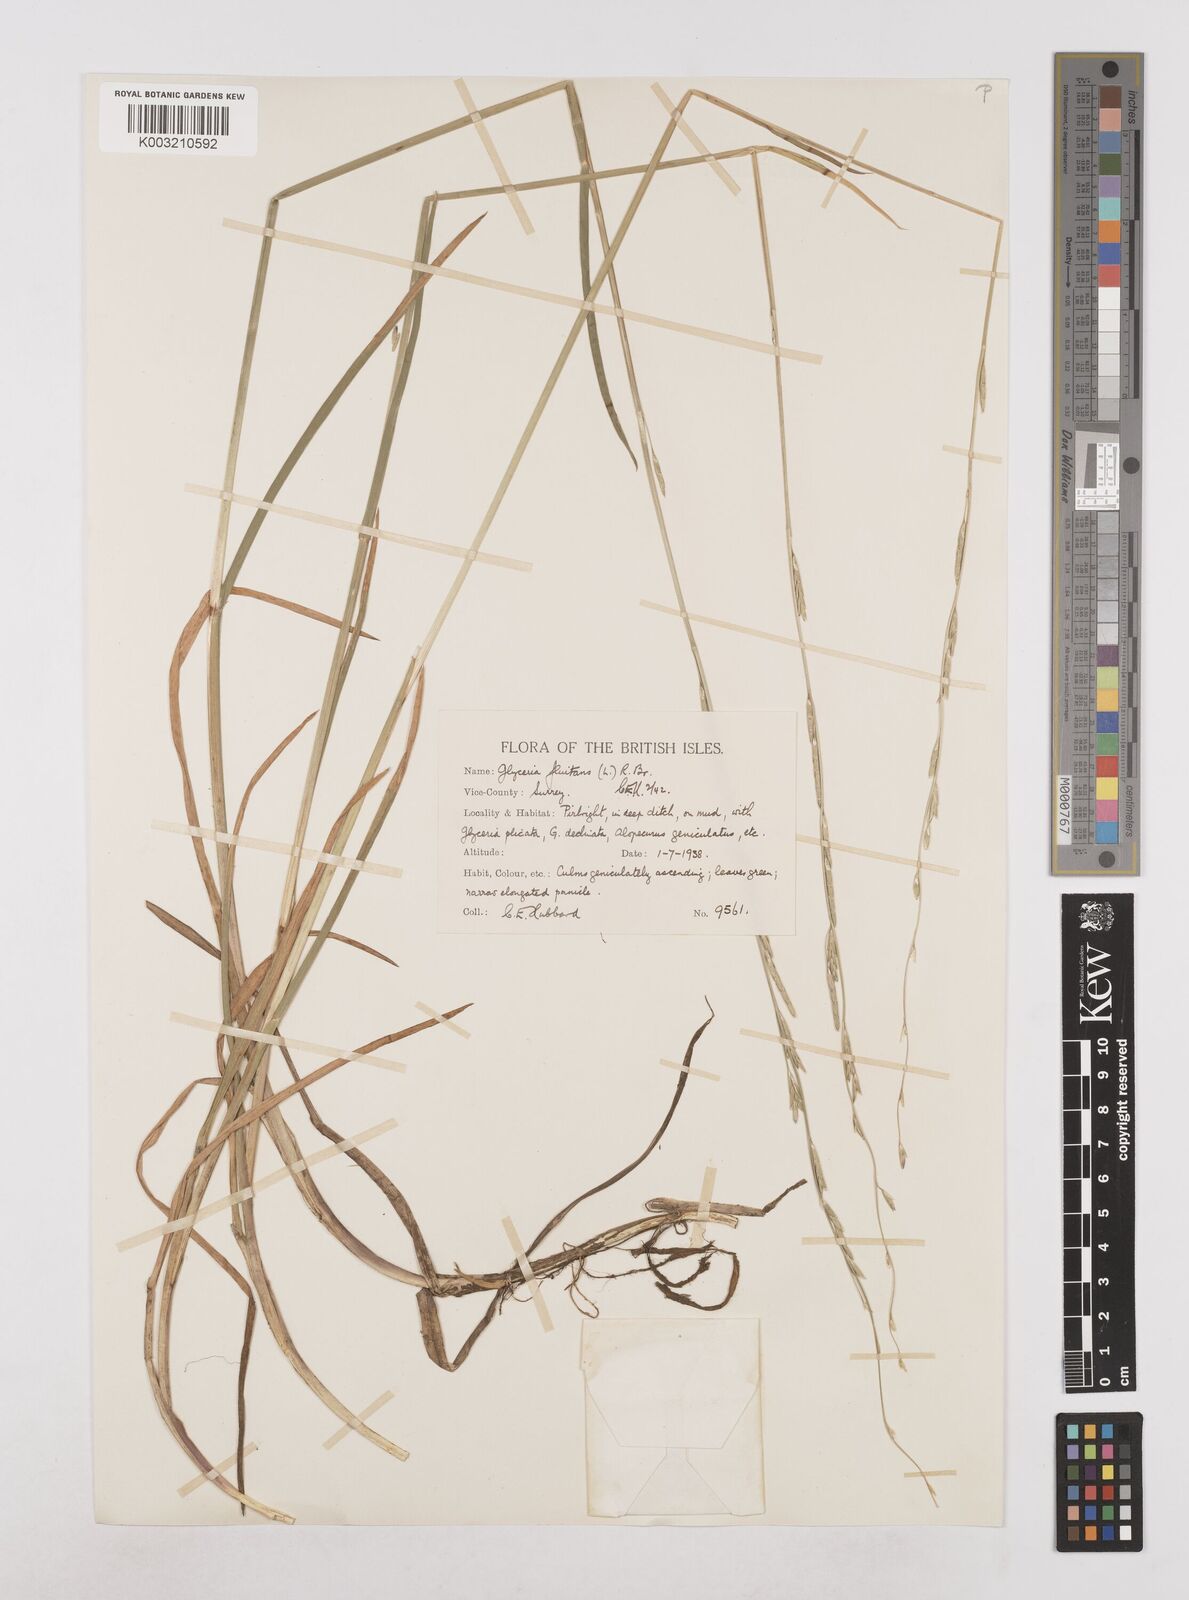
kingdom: Plantae
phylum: Tracheophyta
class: Liliopsida
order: Poales
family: Poaceae
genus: Glyceria
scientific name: Glyceria fluitans
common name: Floating sweet-grass
